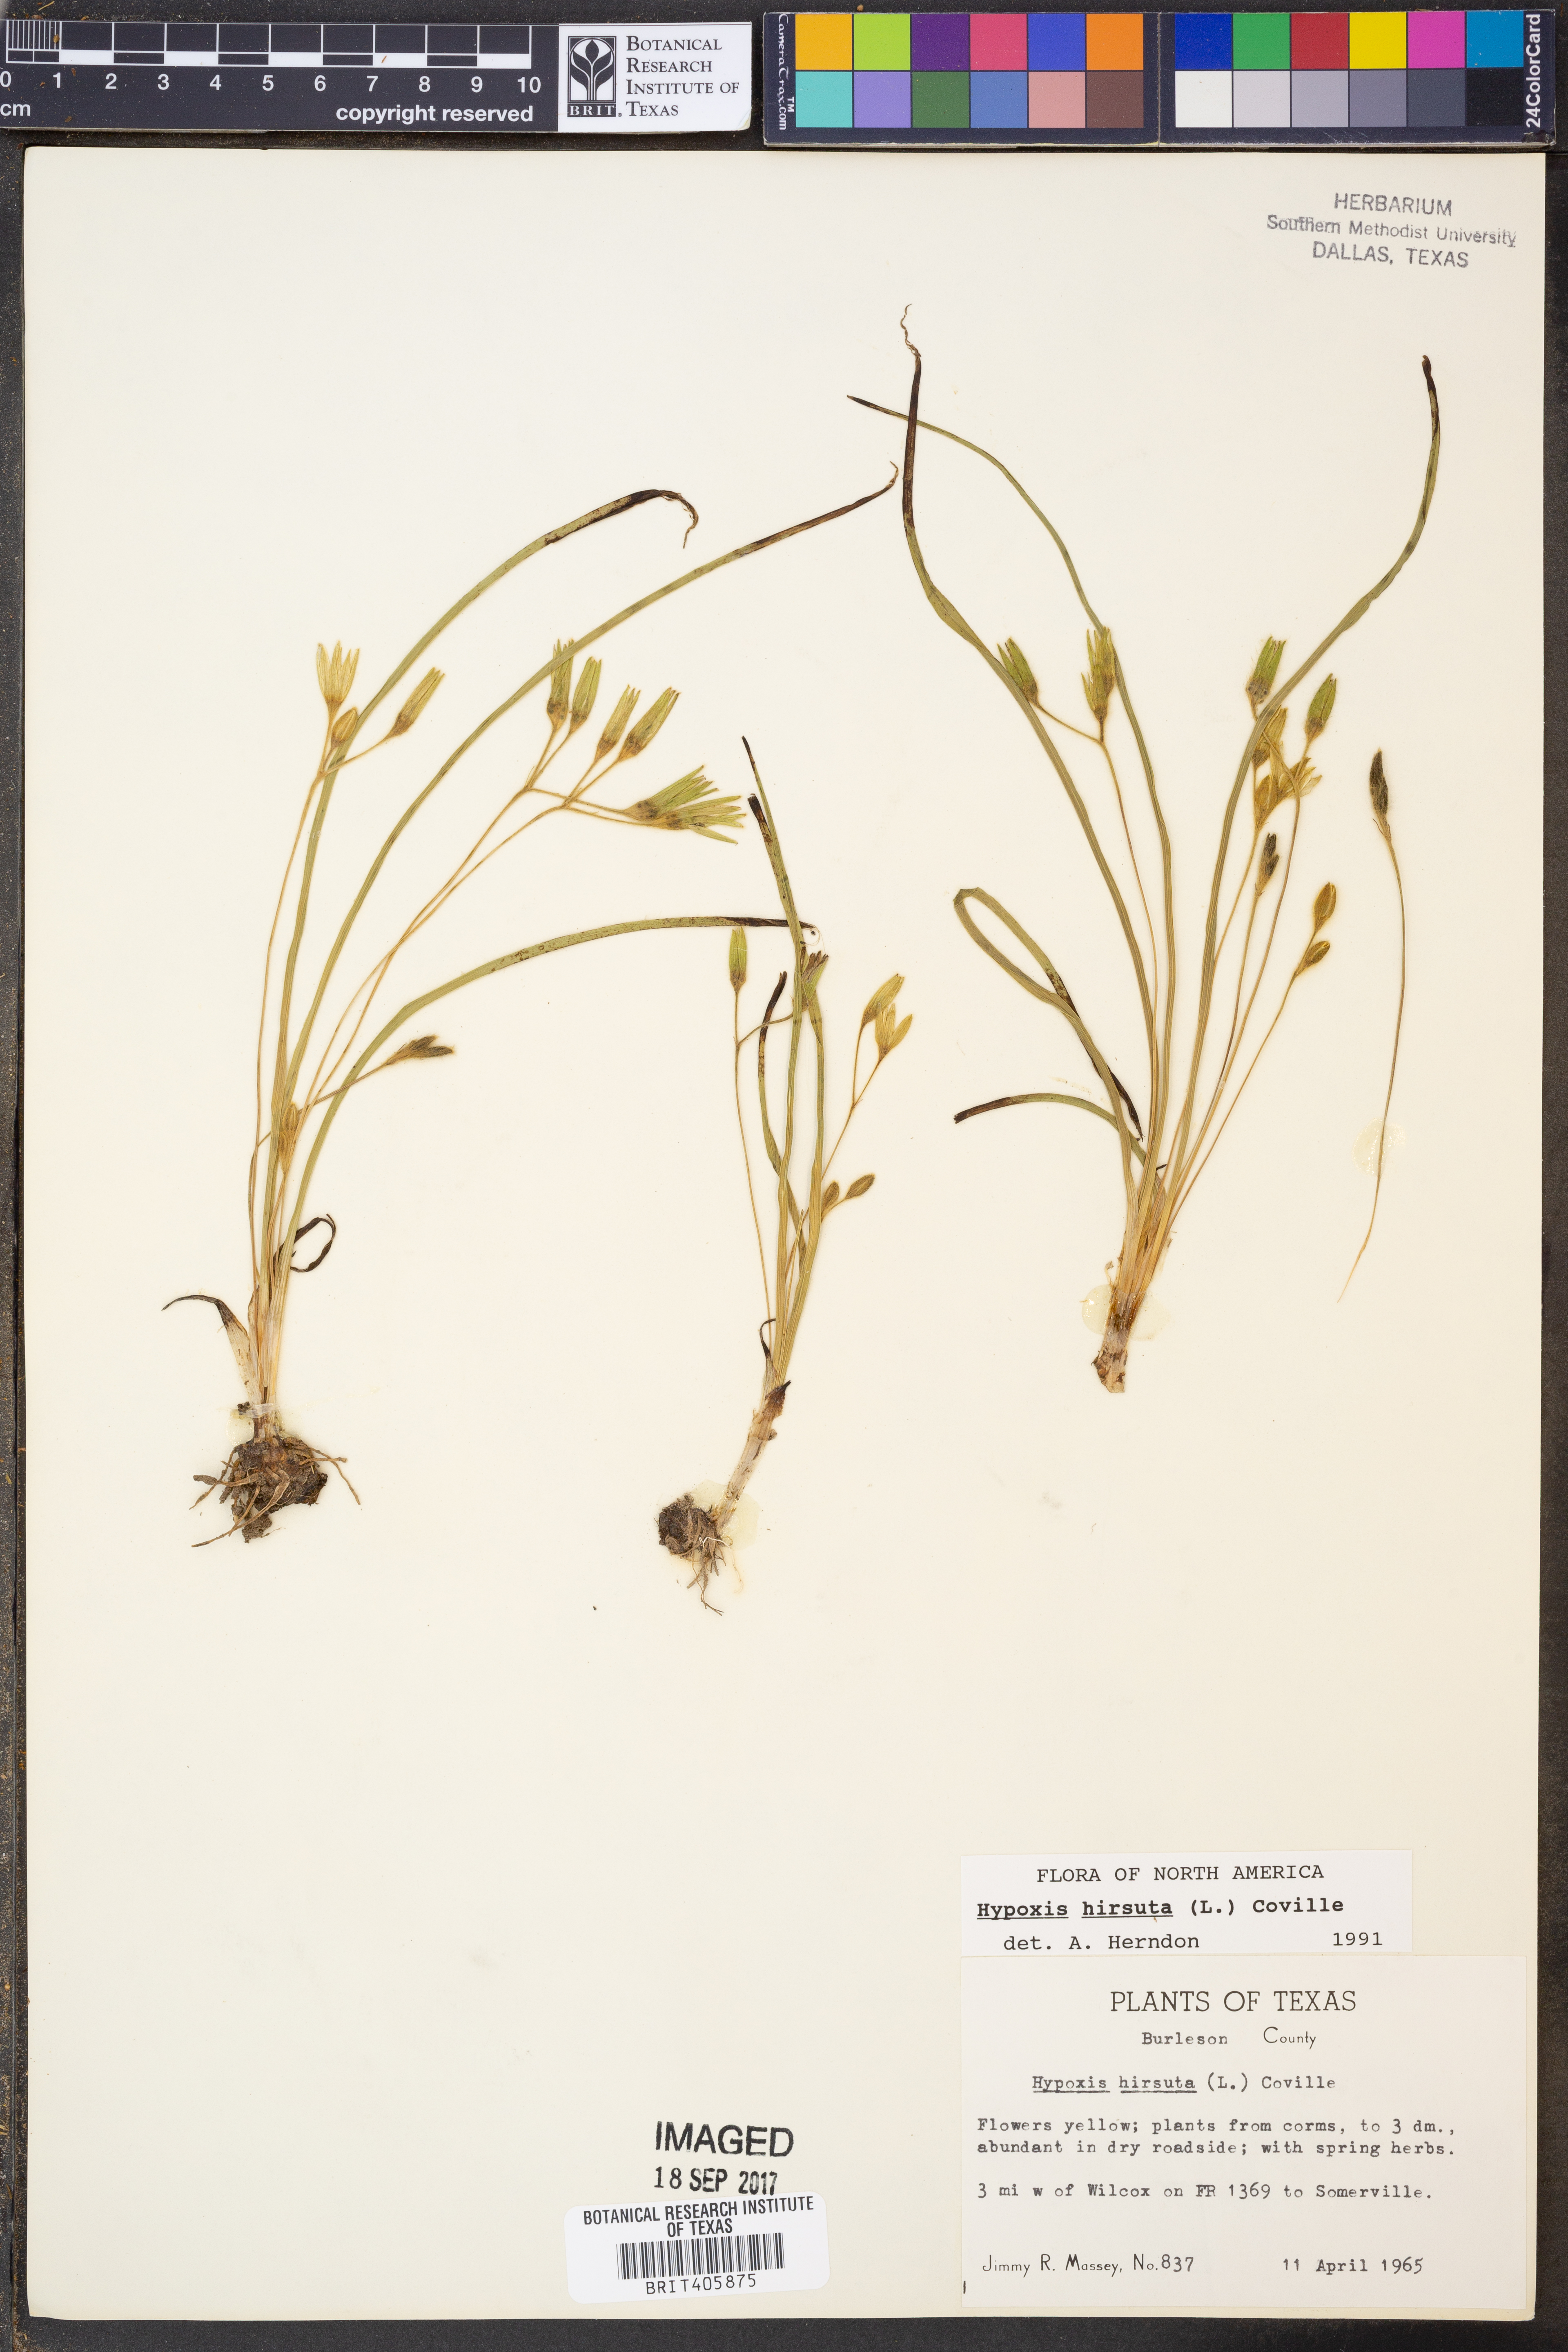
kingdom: Plantae
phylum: Tracheophyta
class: Liliopsida
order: Asparagales
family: Hypoxidaceae
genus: Hypoxis
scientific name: Hypoxis hirsuta
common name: Common goldstar
